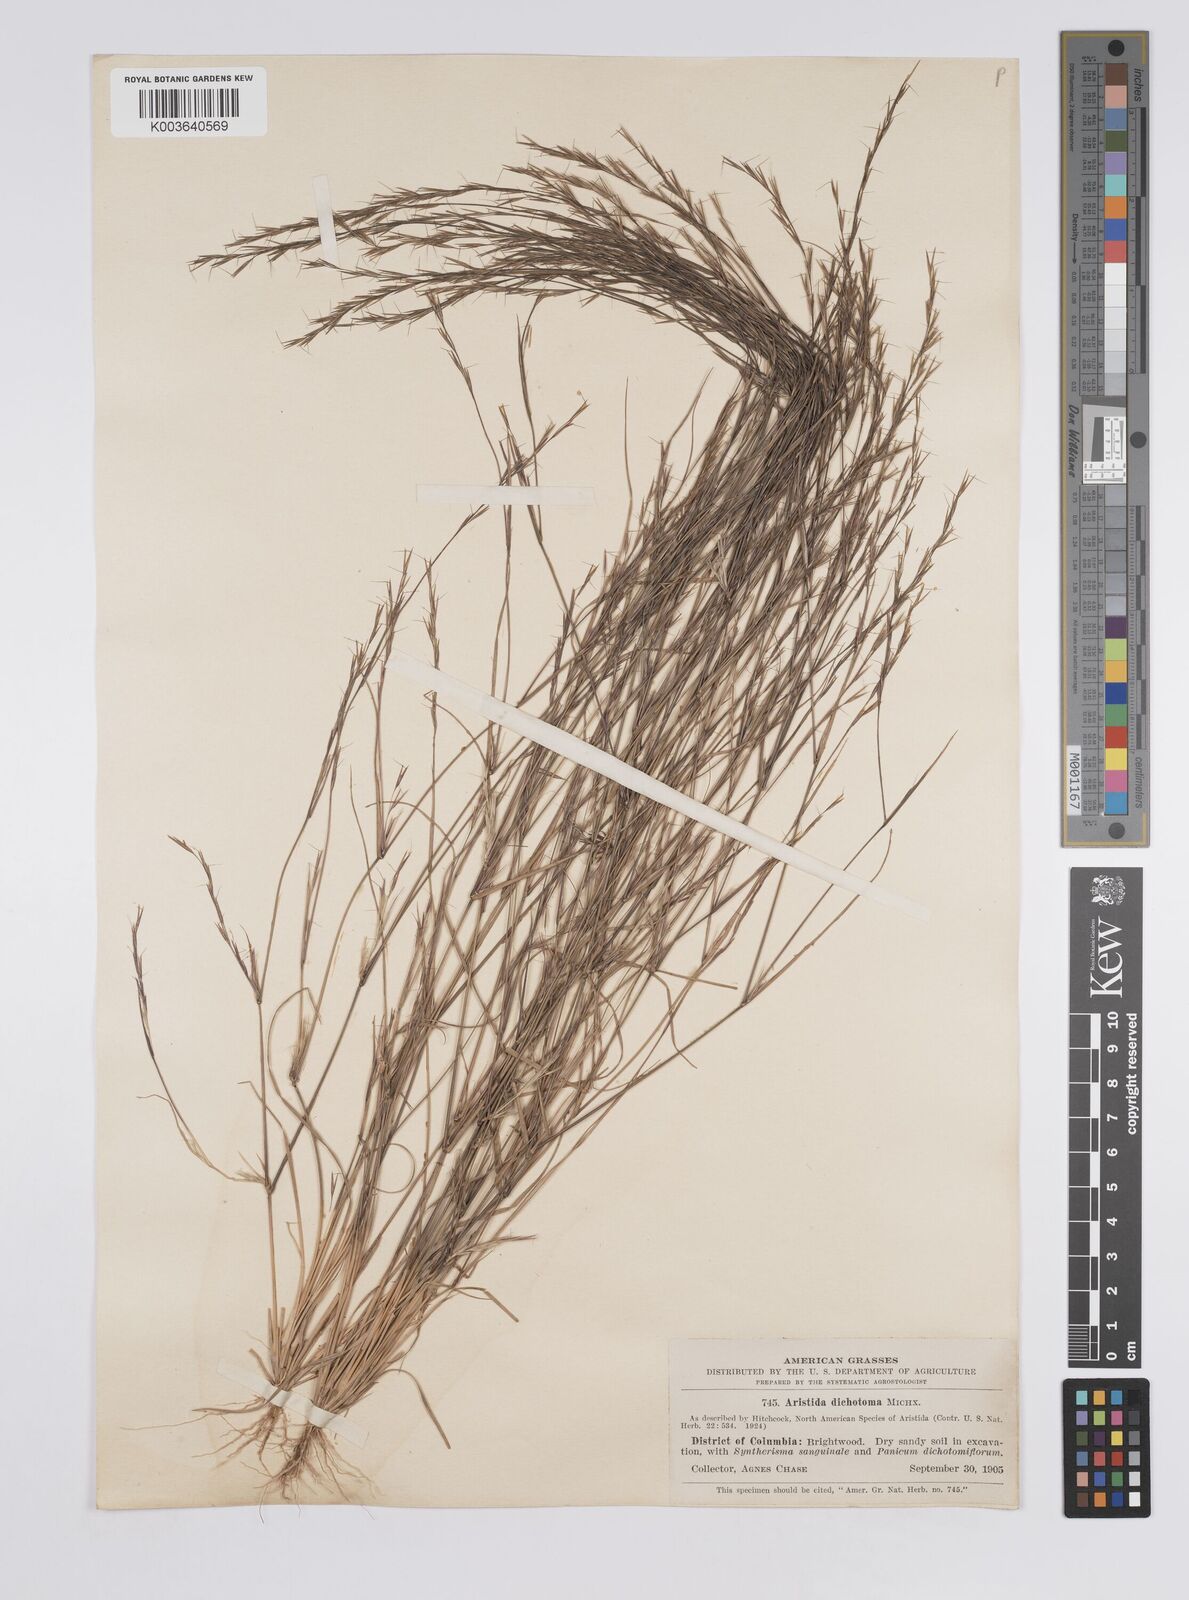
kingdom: Plantae
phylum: Tracheophyta
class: Liliopsida
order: Poales
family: Poaceae
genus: Aristida
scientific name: Aristida dichotoma
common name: Churchmouse three-awn
